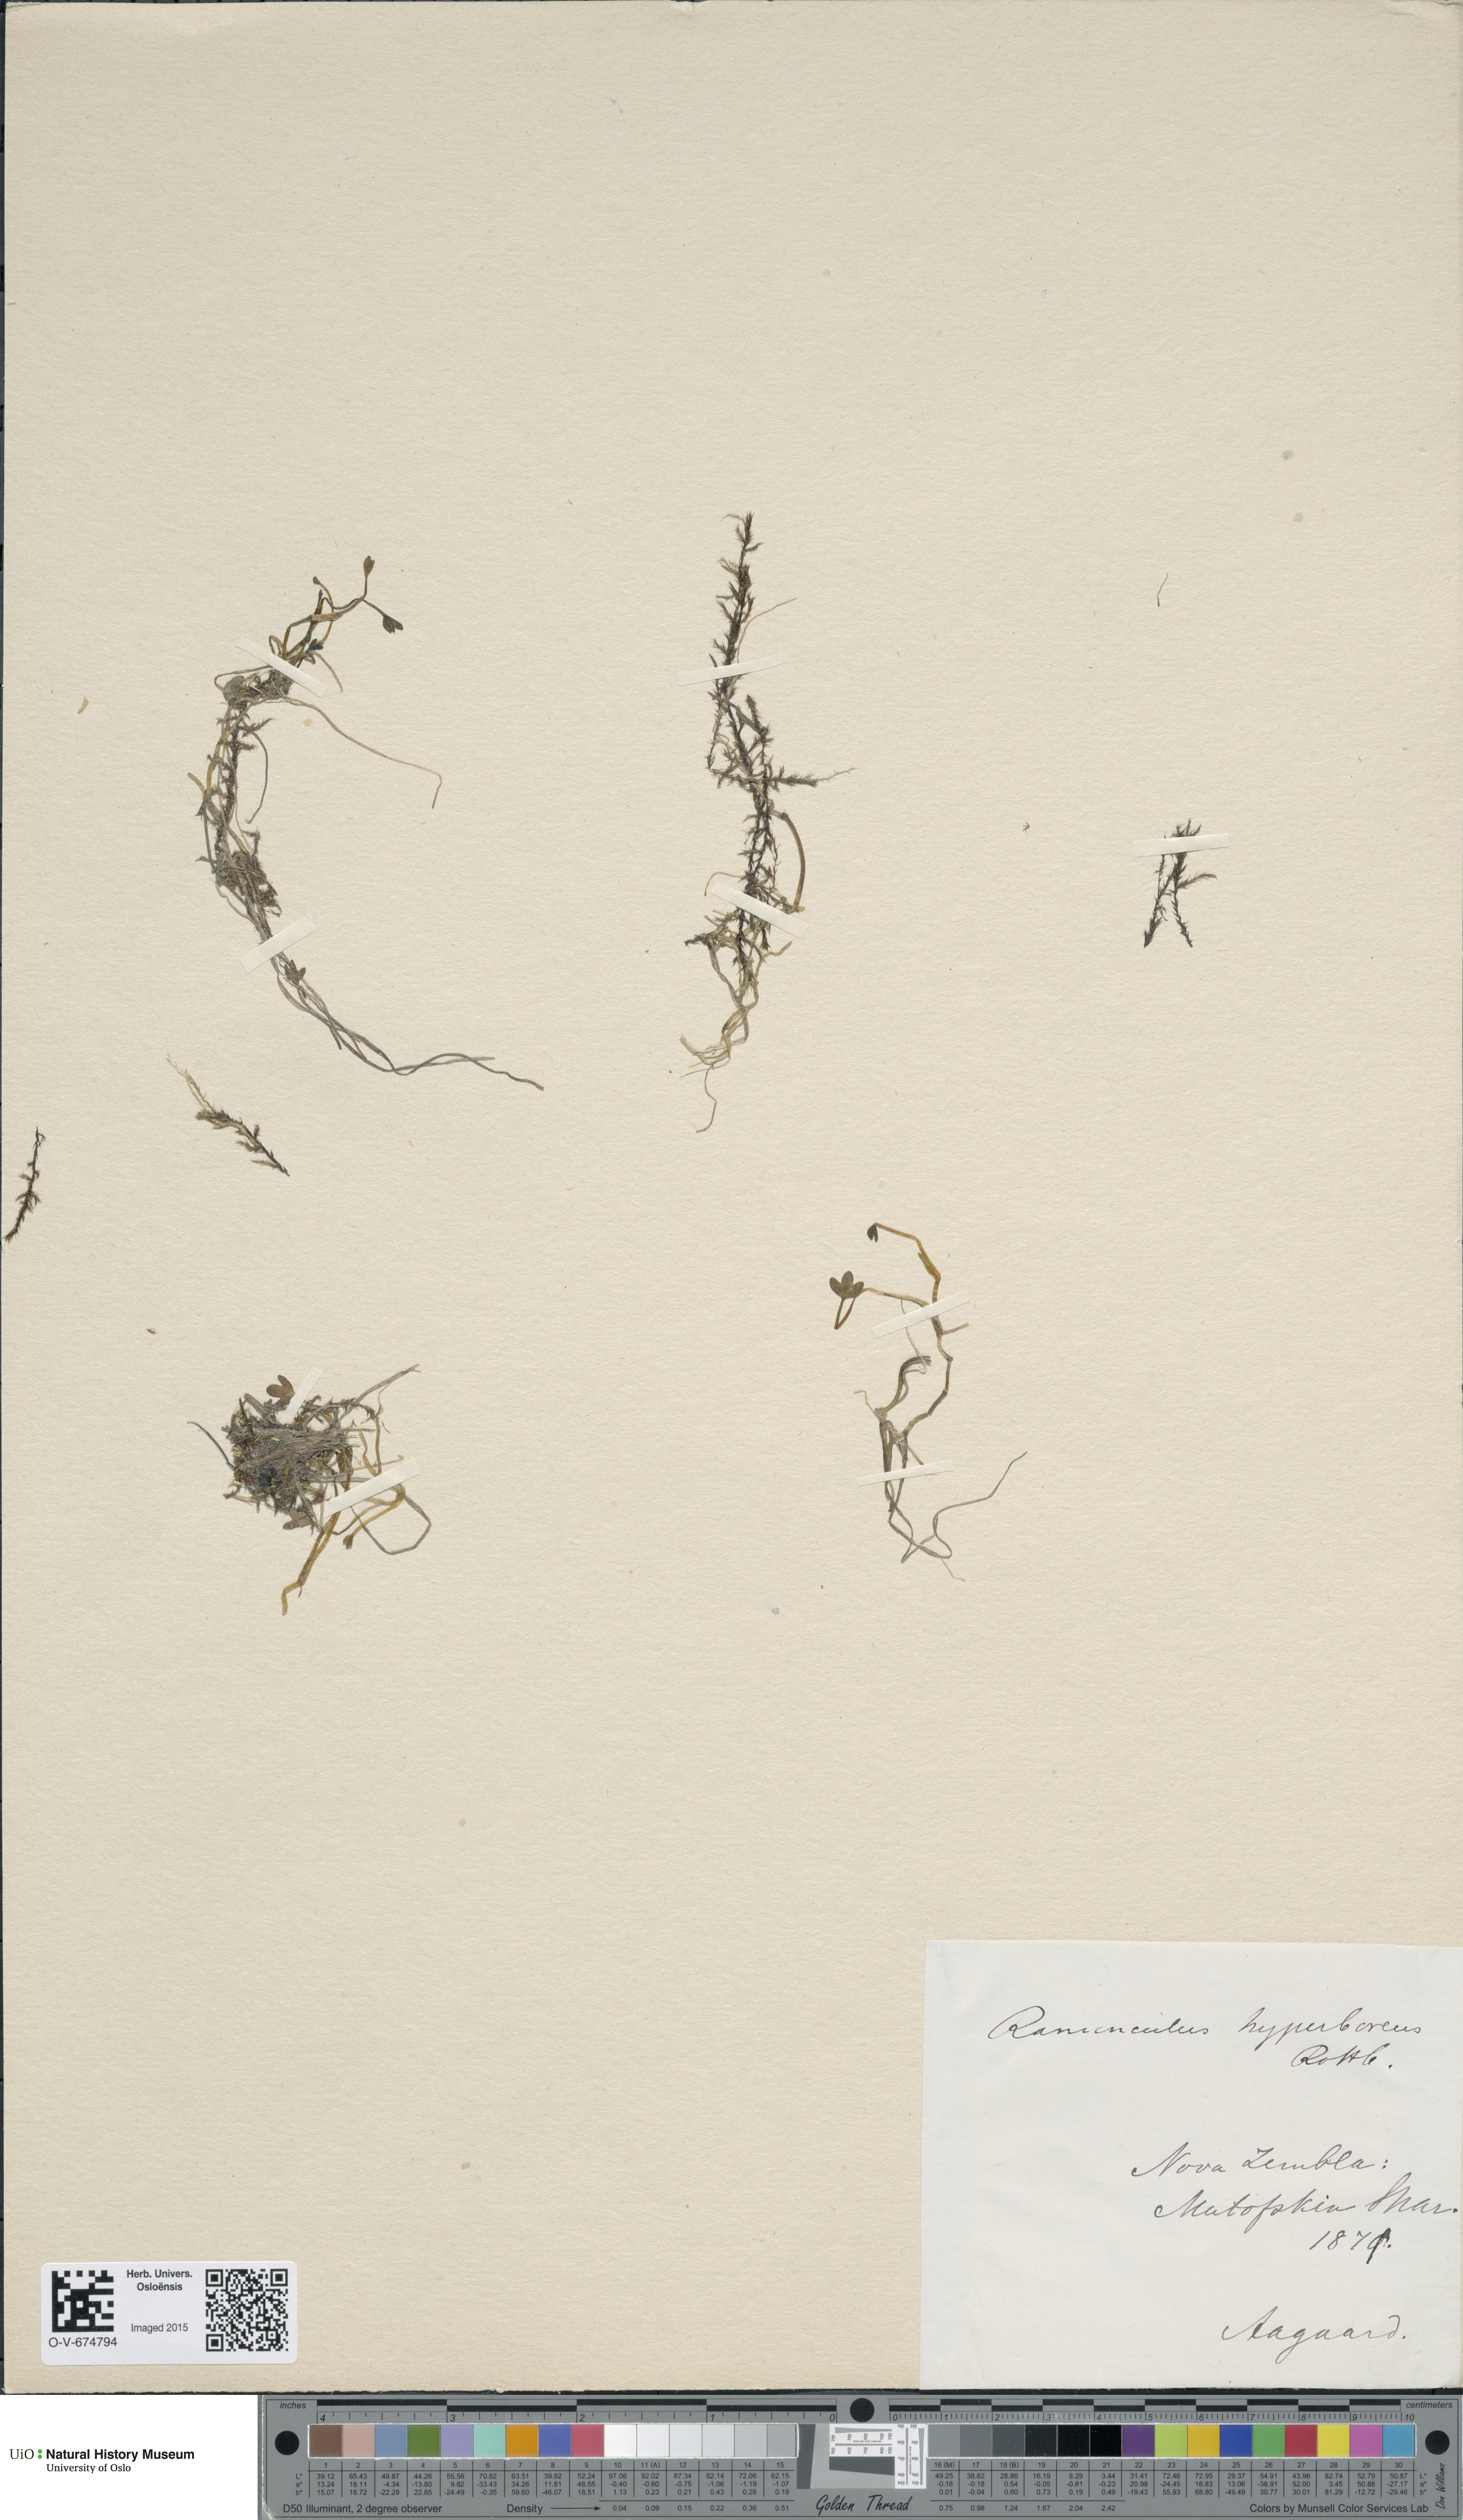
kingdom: Plantae
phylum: Tracheophyta
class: Magnoliopsida
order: Ranunculales
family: Ranunculaceae
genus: Ranunculus
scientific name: Ranunculus hyperboreus
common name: Arctic buttercup
